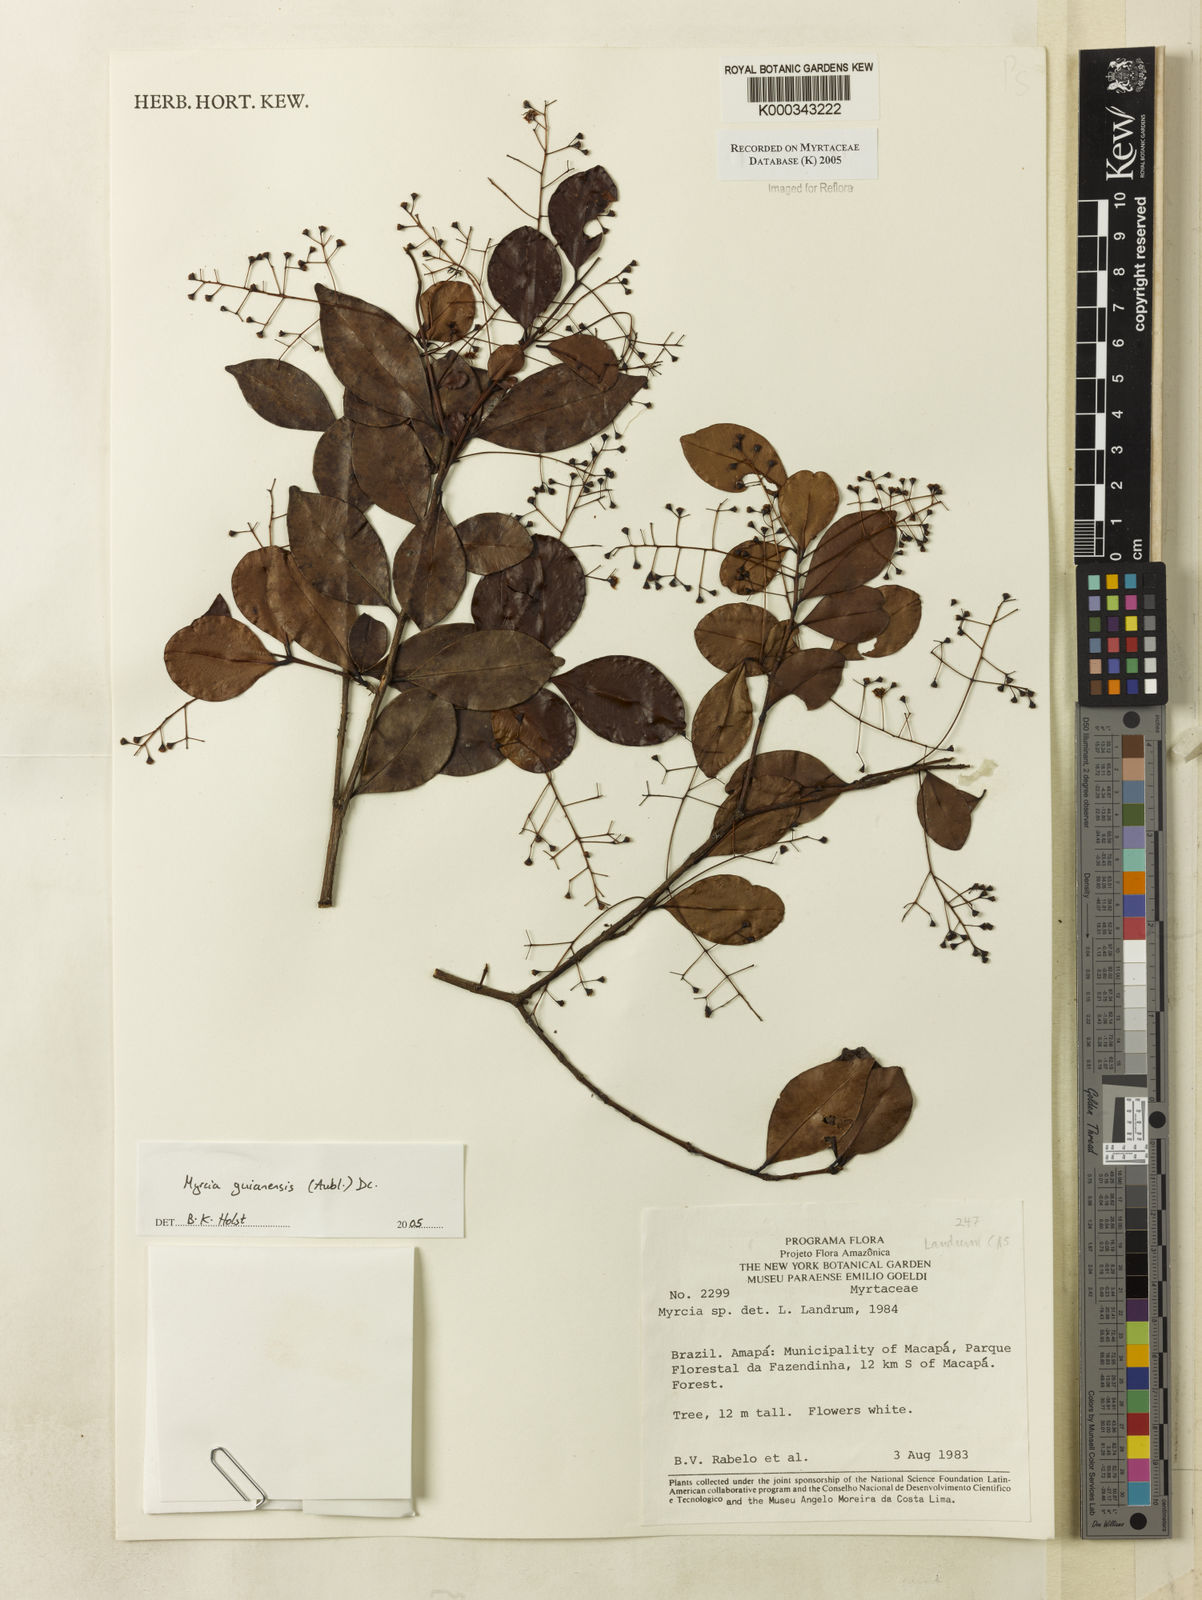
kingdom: Plantae
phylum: Tracheophyta
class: Magnoliopsida
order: Myrtales
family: Myrtaceae
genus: Myrcia
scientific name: Myrcia guianensis
